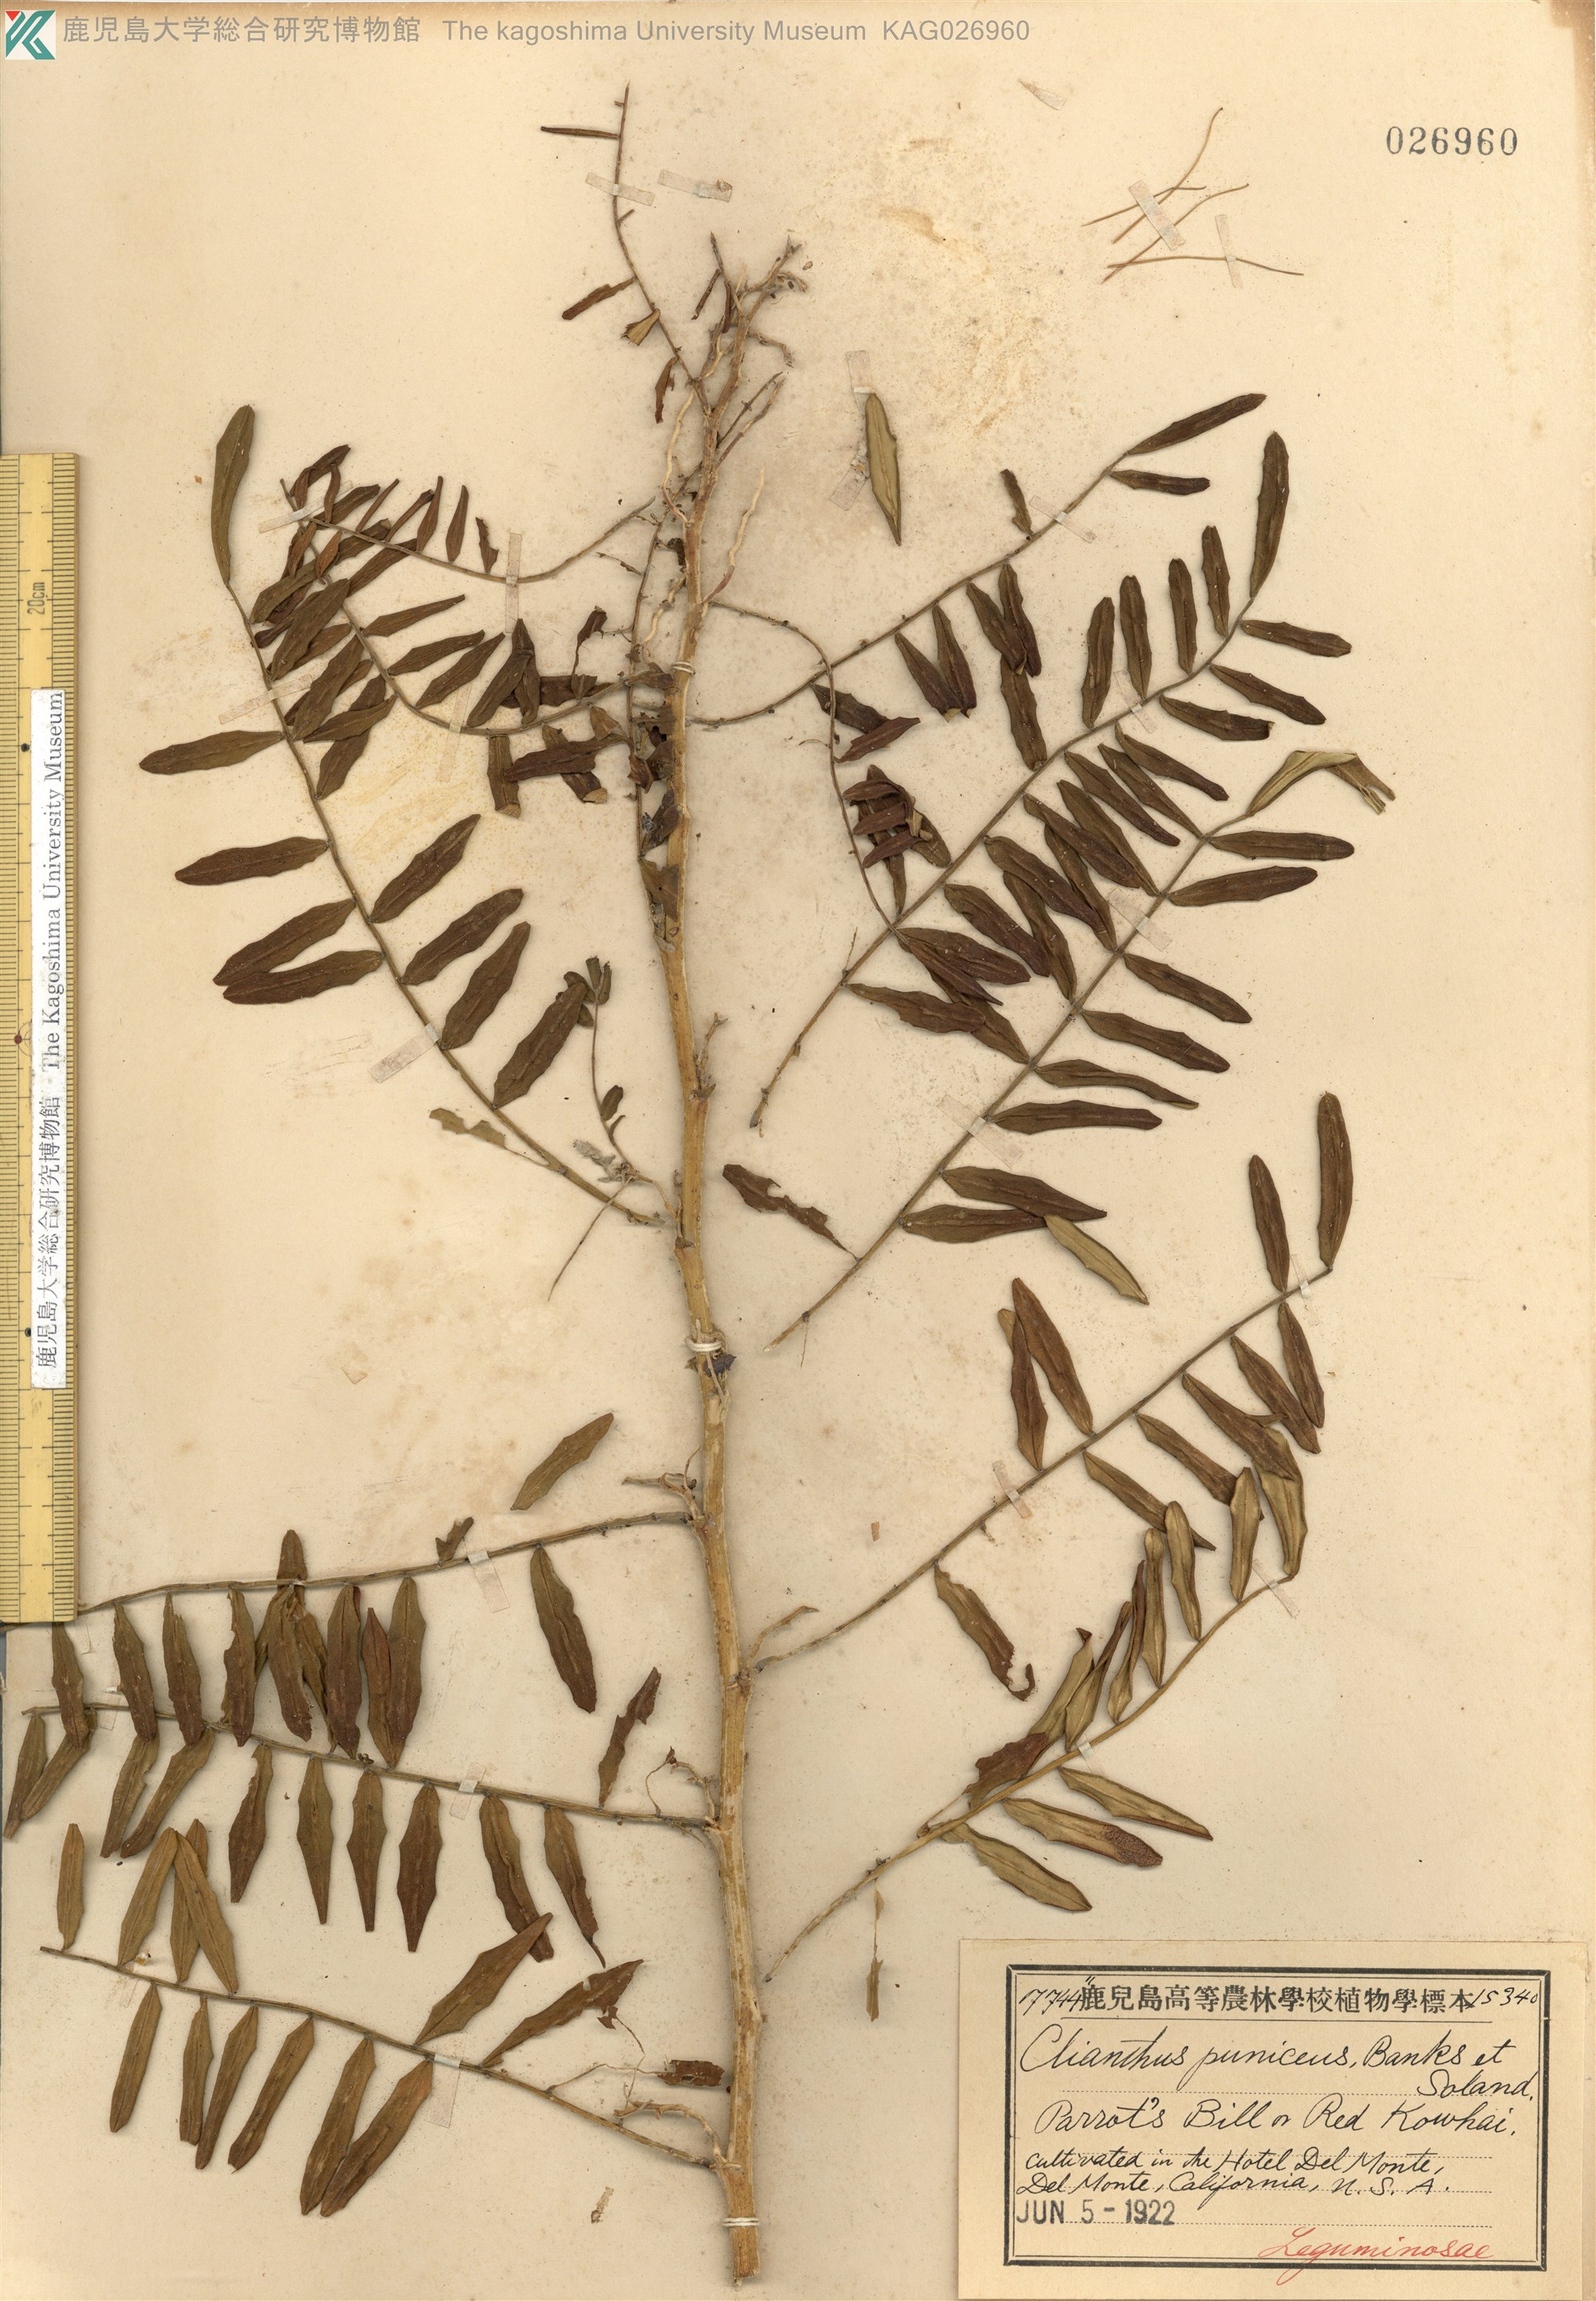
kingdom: Plantae
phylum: Tracheophyta
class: Magnoliopsida
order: Fabales
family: Fabaceae
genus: Clianthus
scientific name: Clianthus
